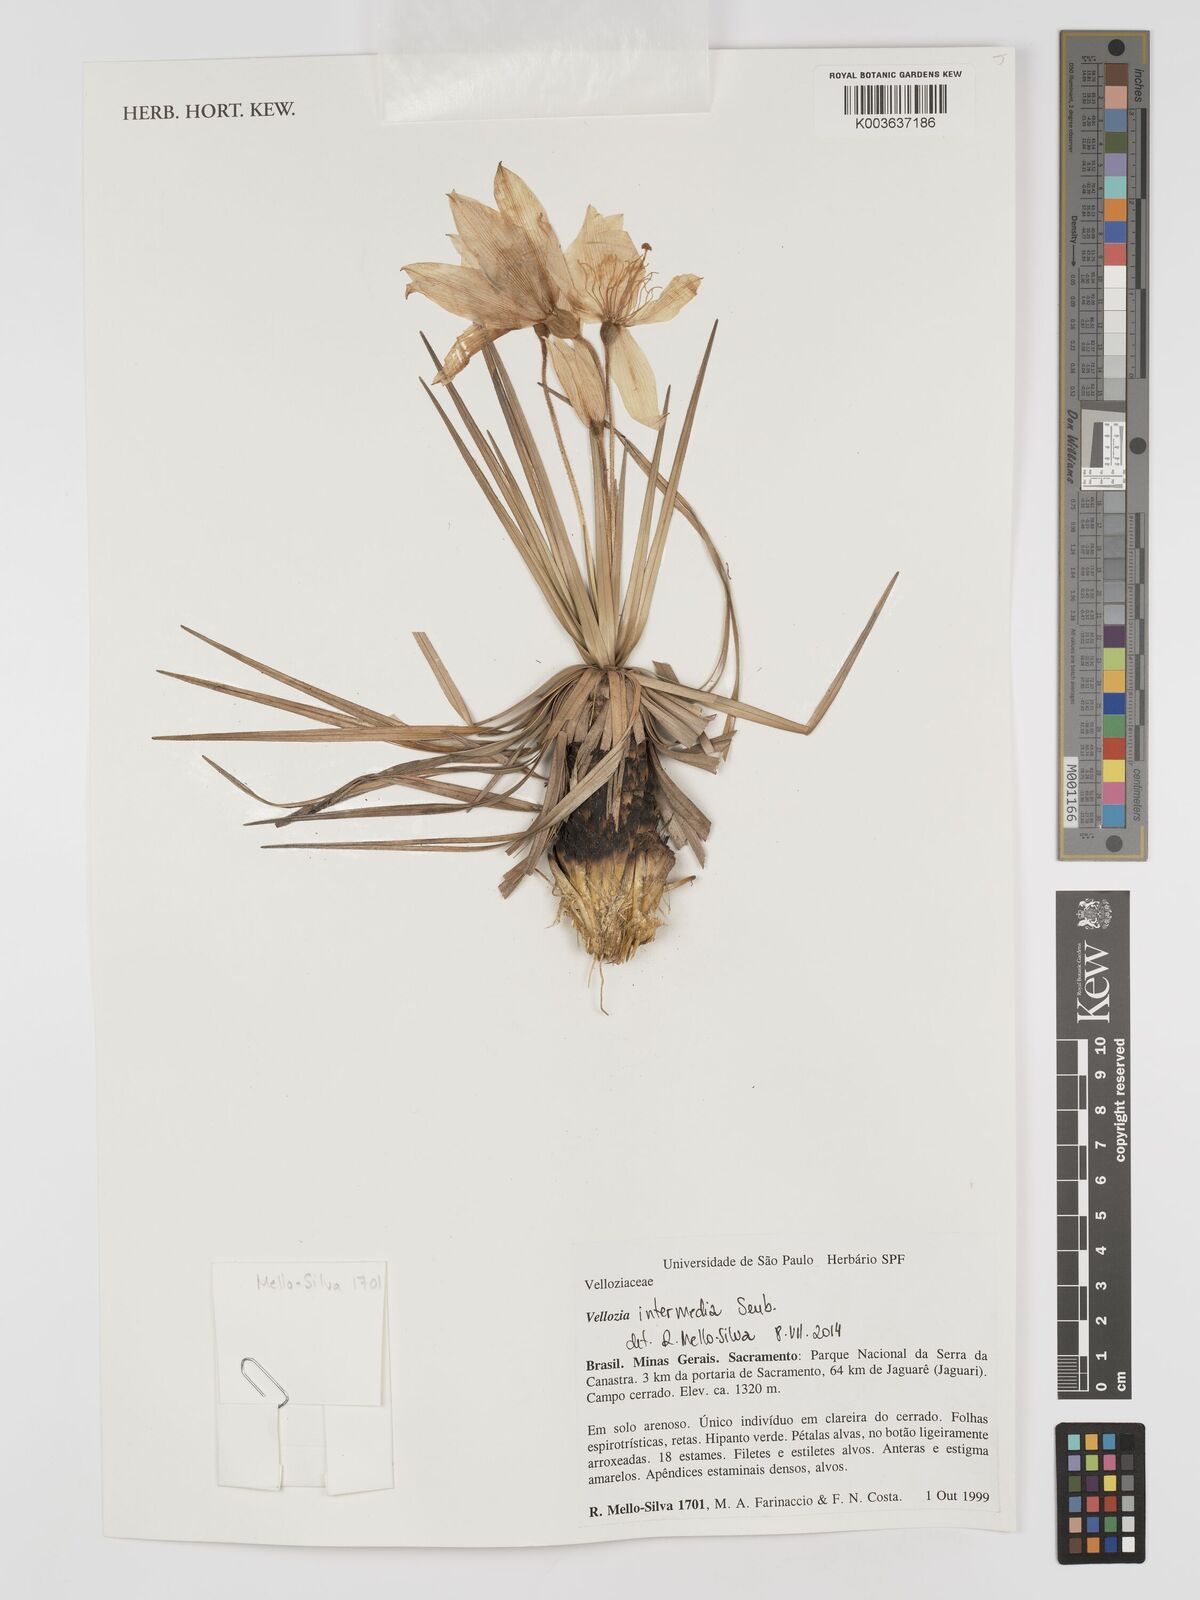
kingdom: Plantae
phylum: Tracheophyta
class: Liliopsida
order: Pandanales
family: Velloziaceae
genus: Vellozia
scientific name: Vellozia intermedia
